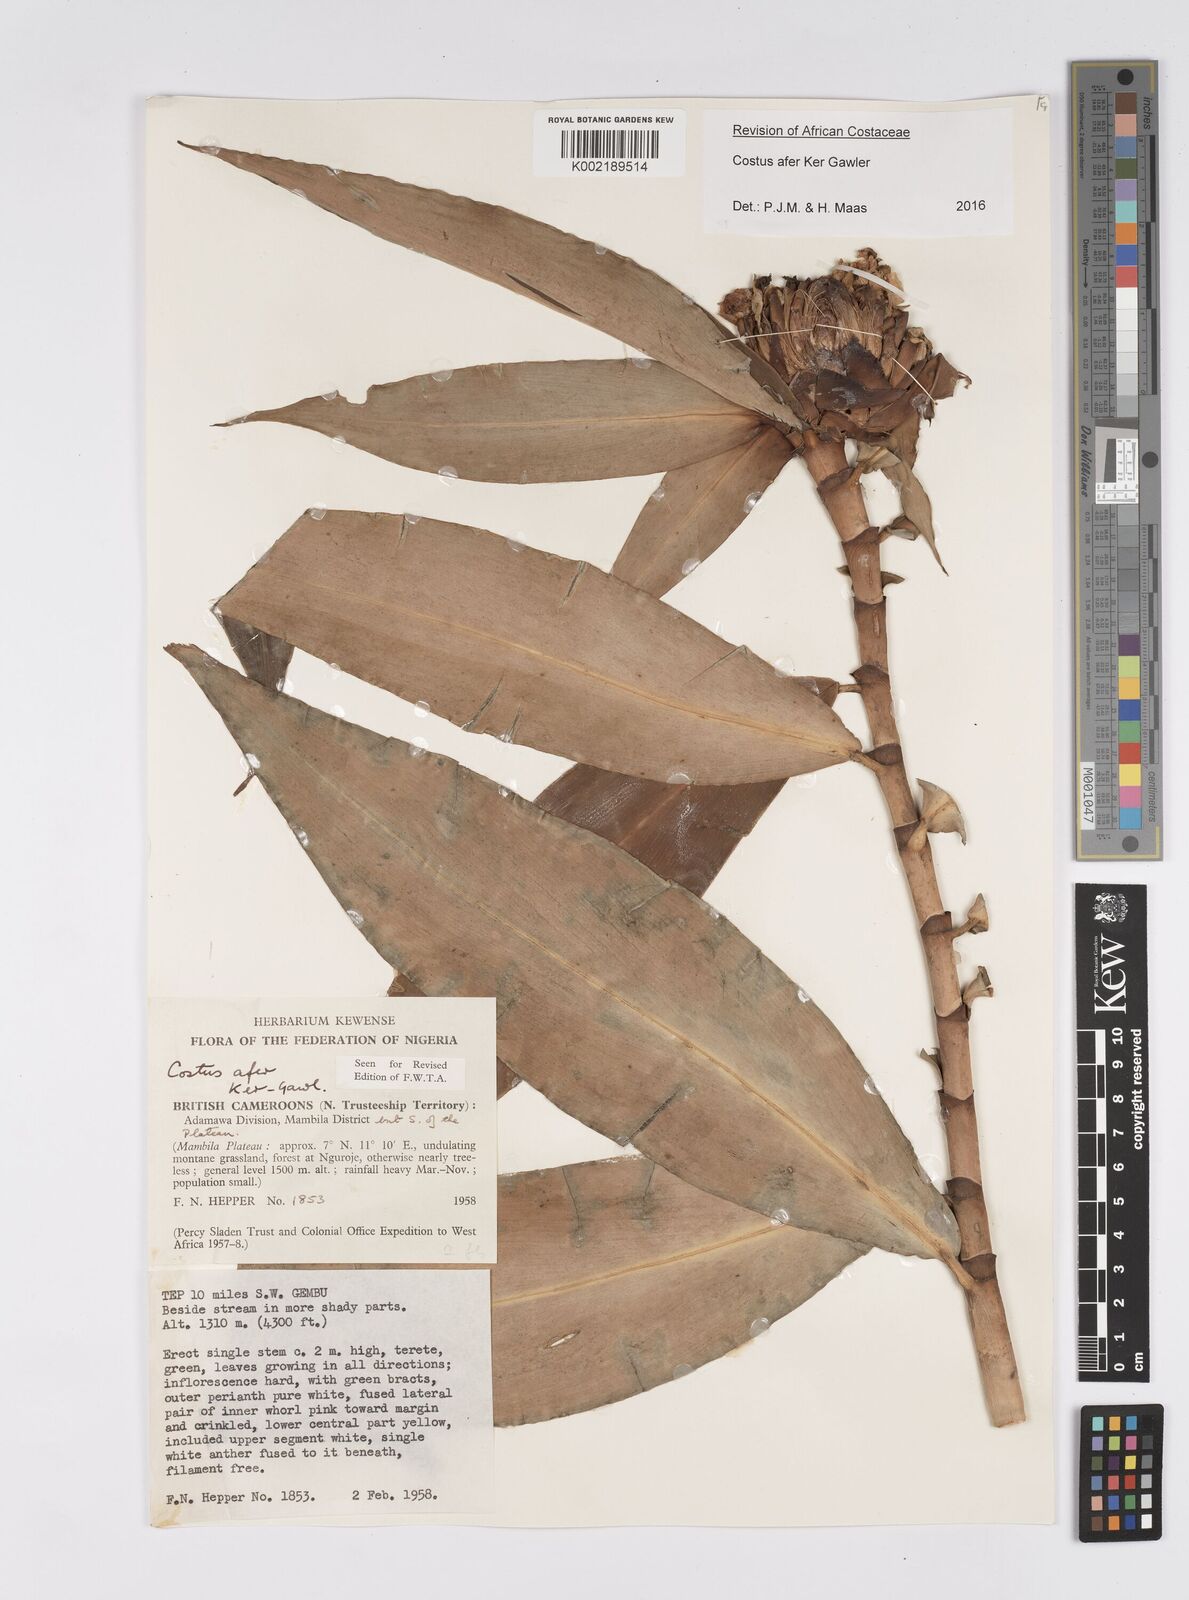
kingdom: Plantae
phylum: Tracheophyta
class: Liliopsida
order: Zingiberales
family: Costaceae
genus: Costus
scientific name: Costus afer
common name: Spiral-ginger
